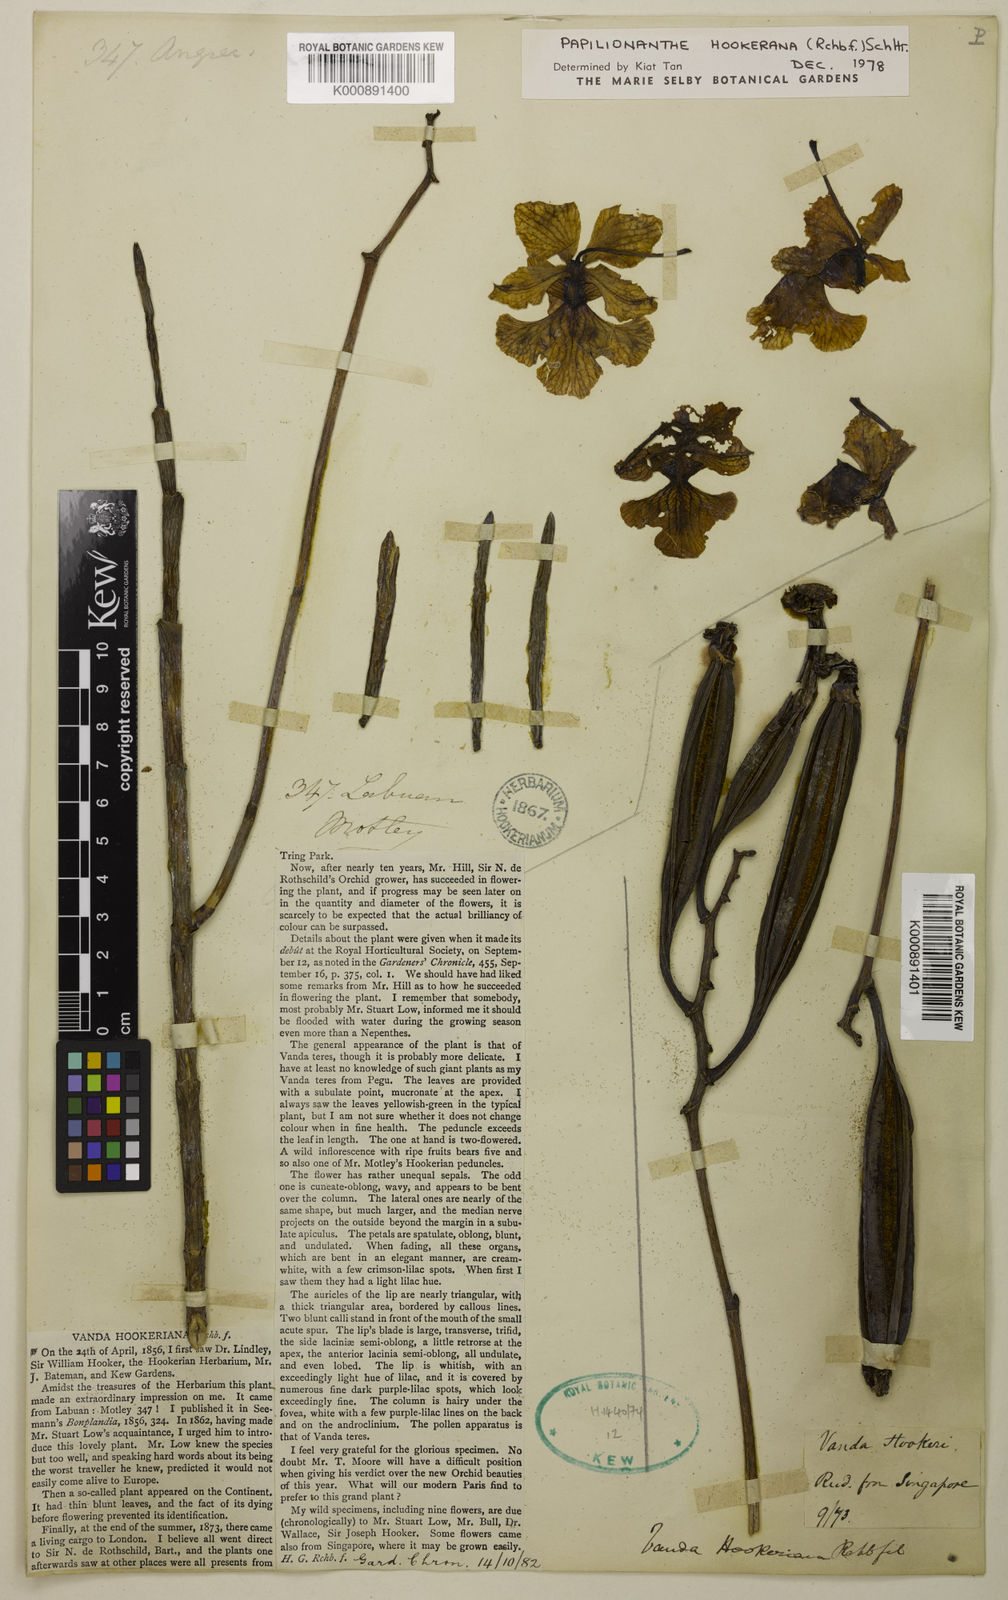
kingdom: Plantae
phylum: Tracheophyta
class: Liliopsida
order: Asparagales
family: Orchidaceae
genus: Papilionanthe
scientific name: Papilionanthe hookeriana
